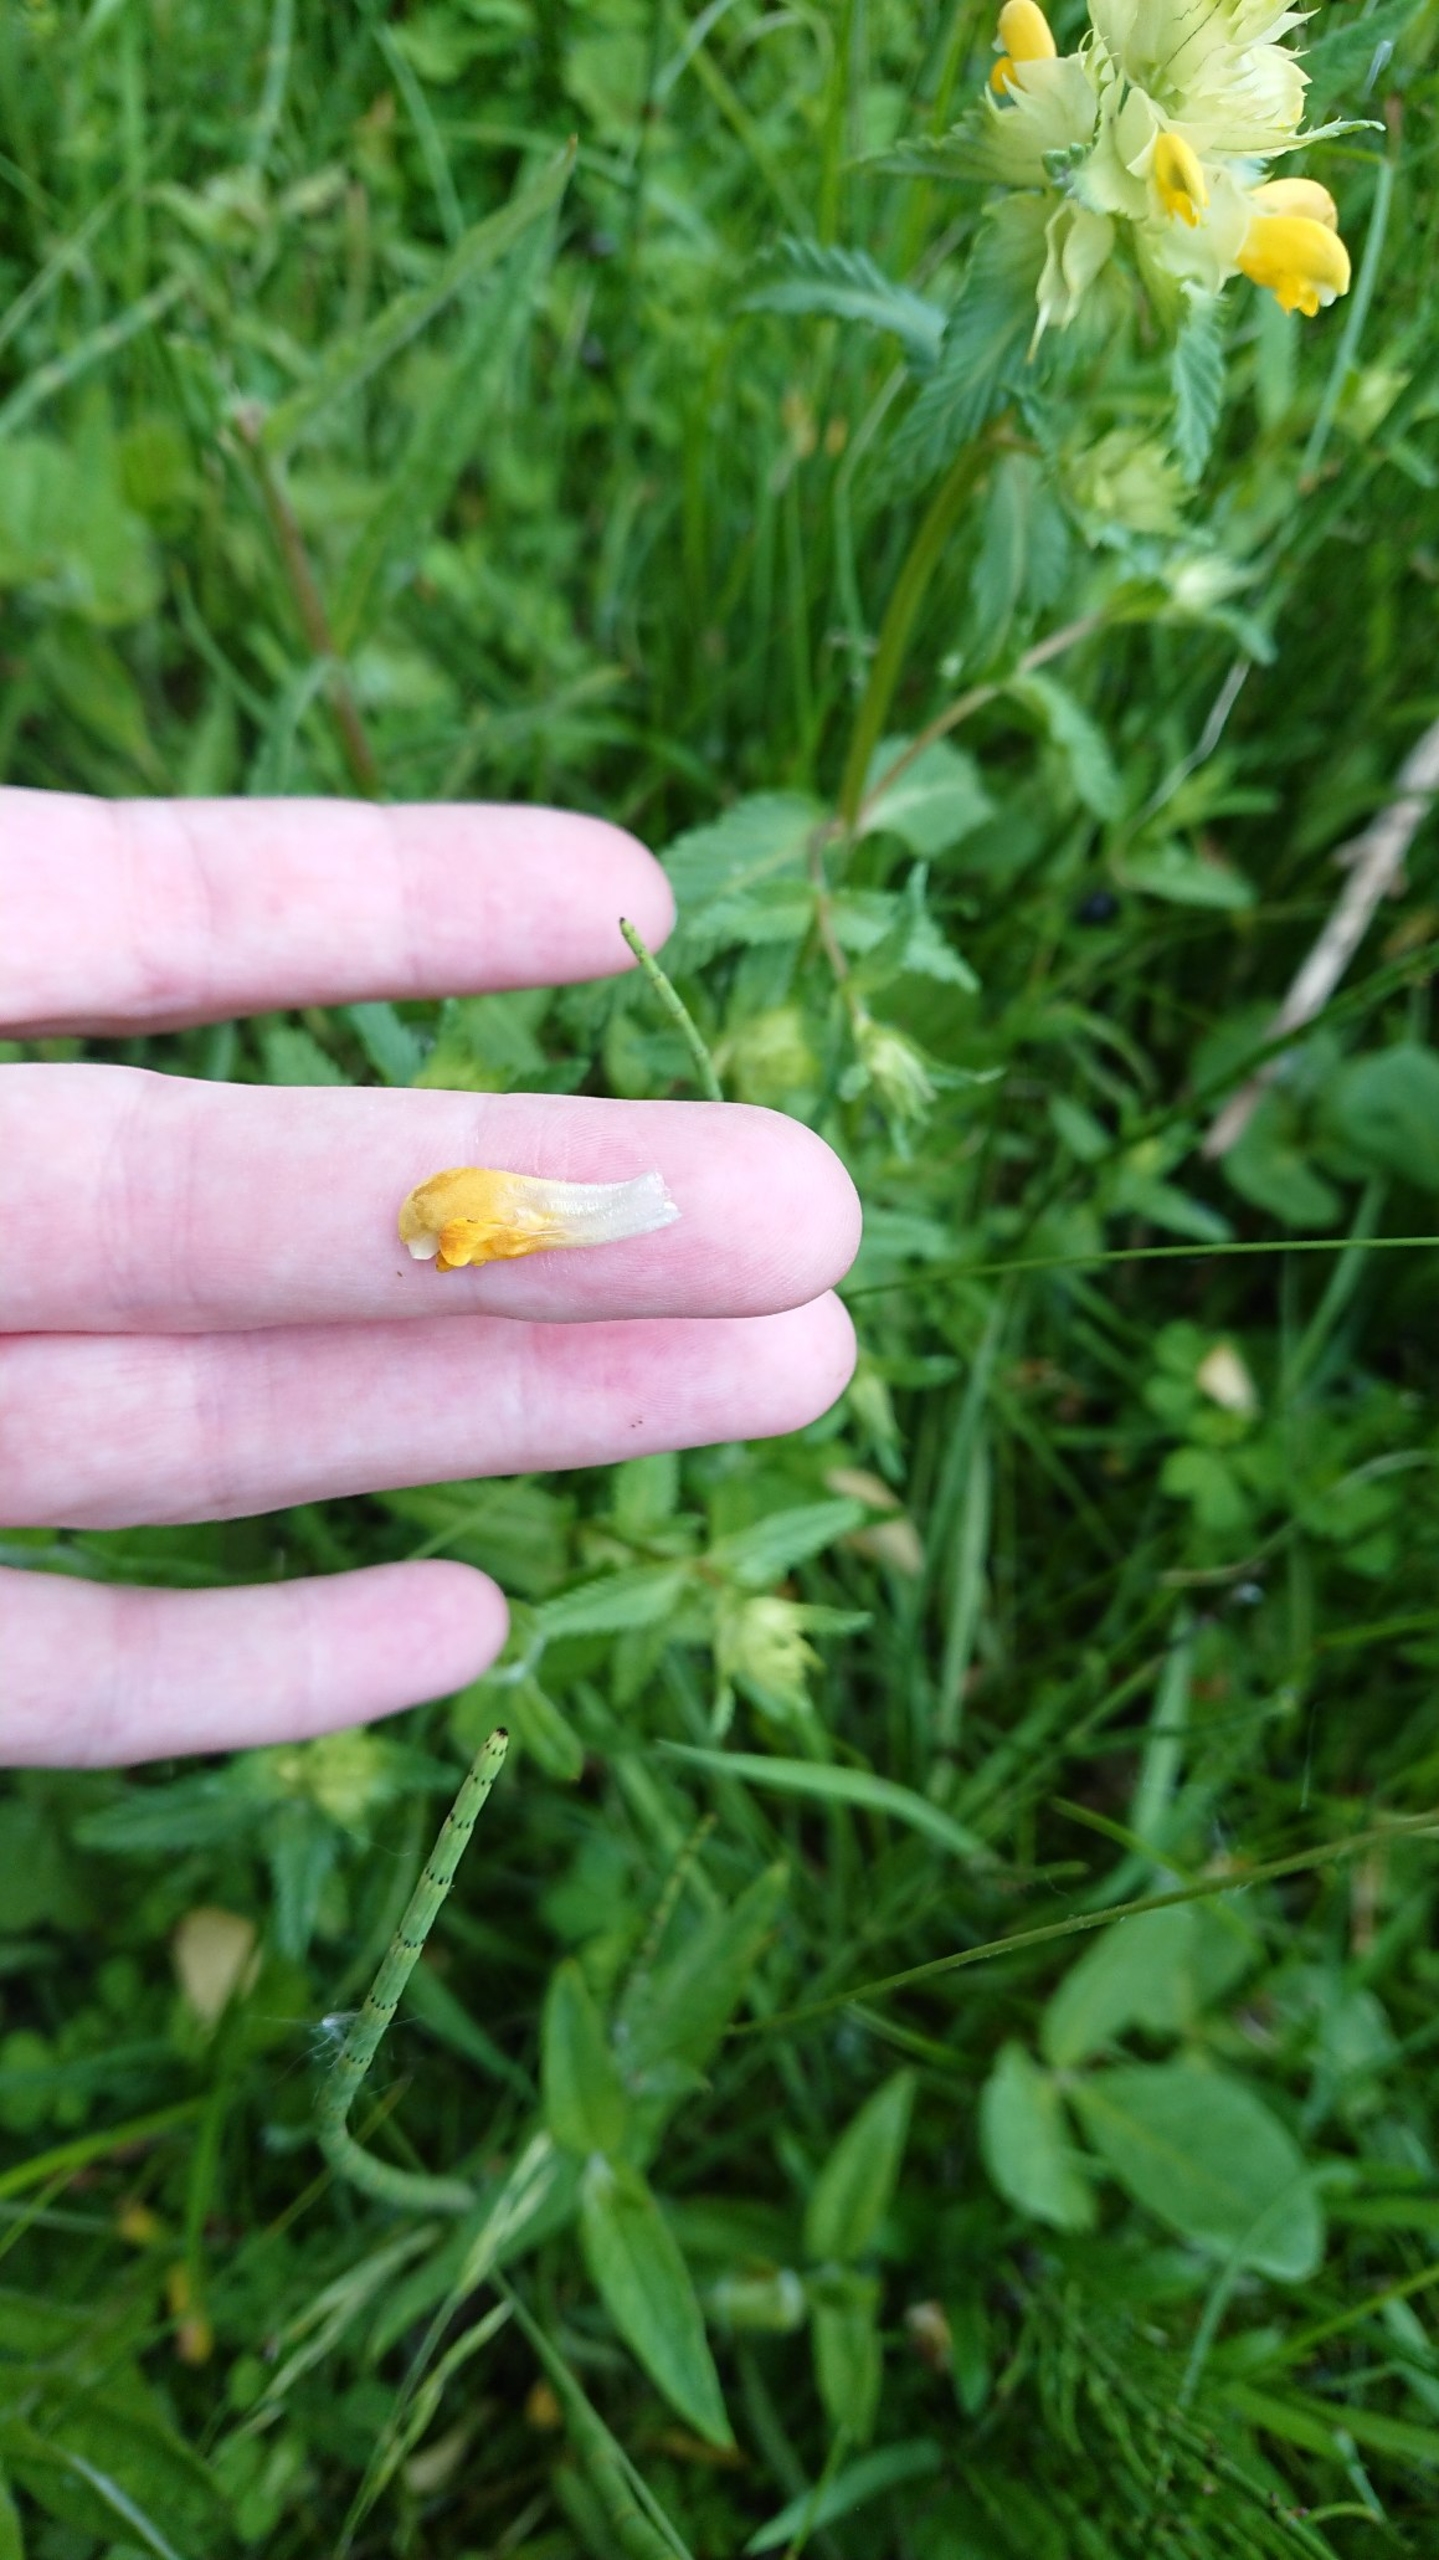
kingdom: Plantae
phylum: Tracheophyta
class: Magnoliopsida
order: Lamiales
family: Orobanchaceae
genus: Rhinanthus
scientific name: Rhinanthus
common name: Stor skjaller
